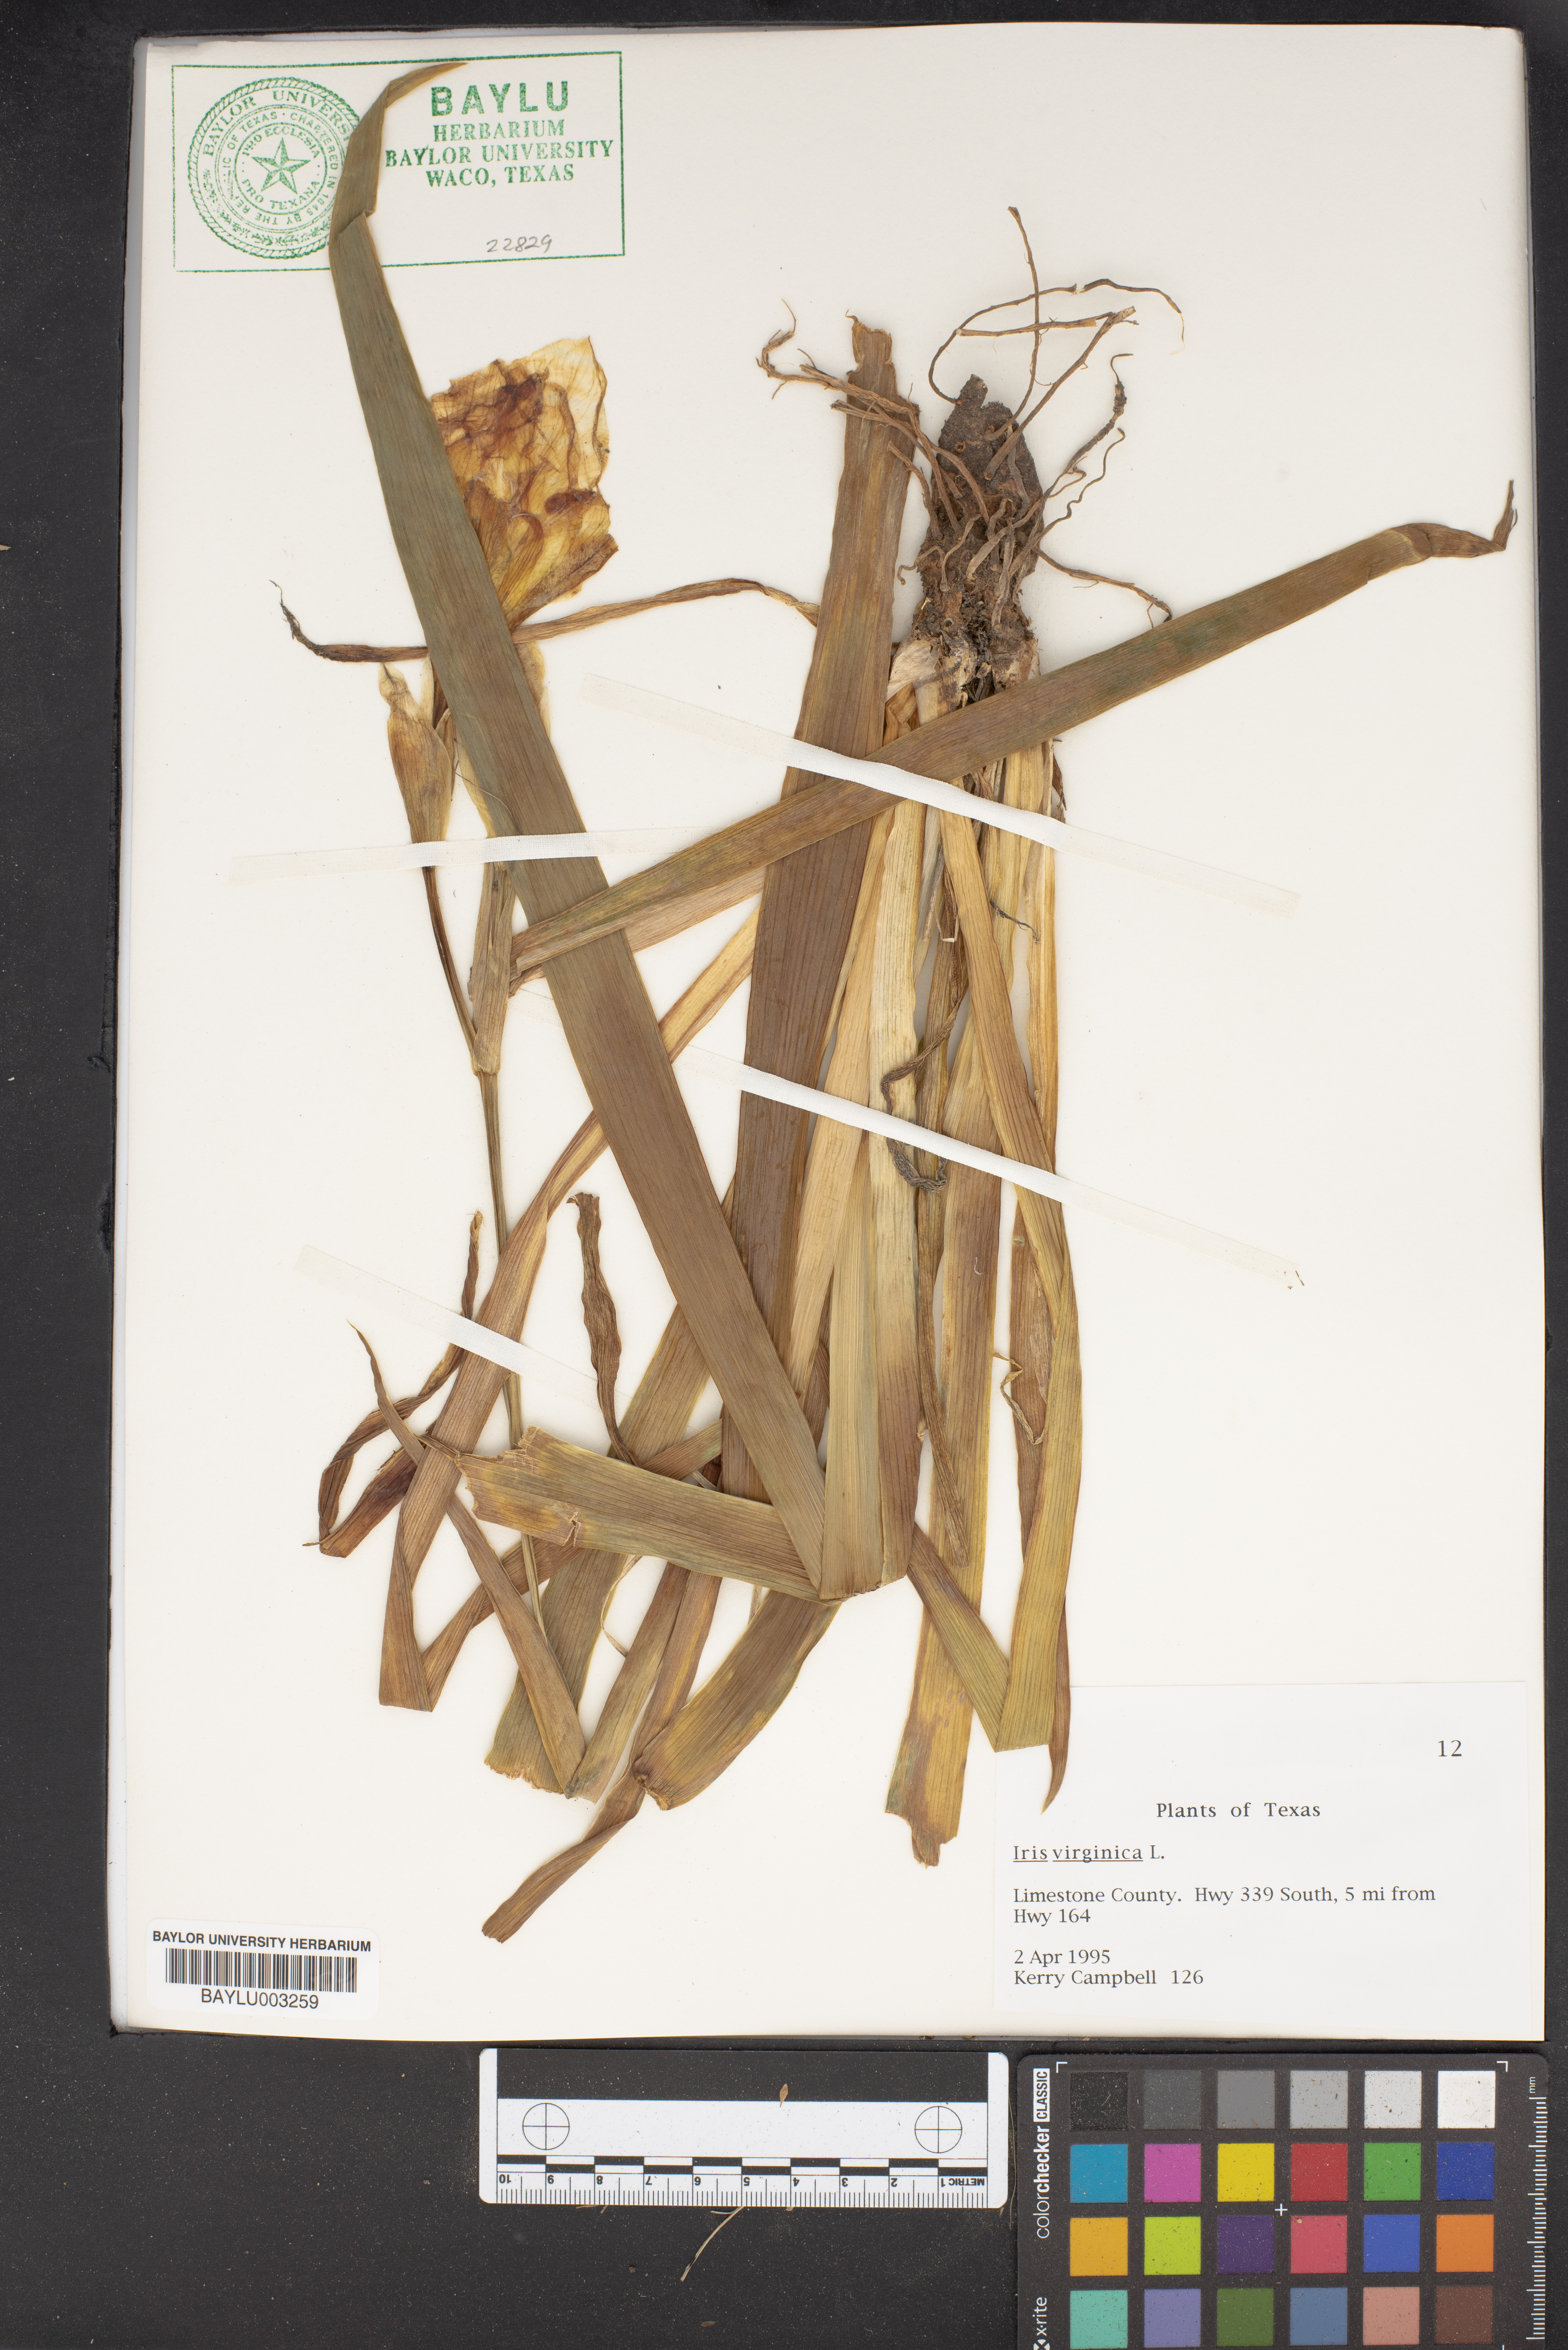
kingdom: Plantae
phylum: Tracheophyta
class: Liliopsida
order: Asparagales
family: Iridaceae
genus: Iris
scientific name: Iris virginica
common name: Southern blue flag
